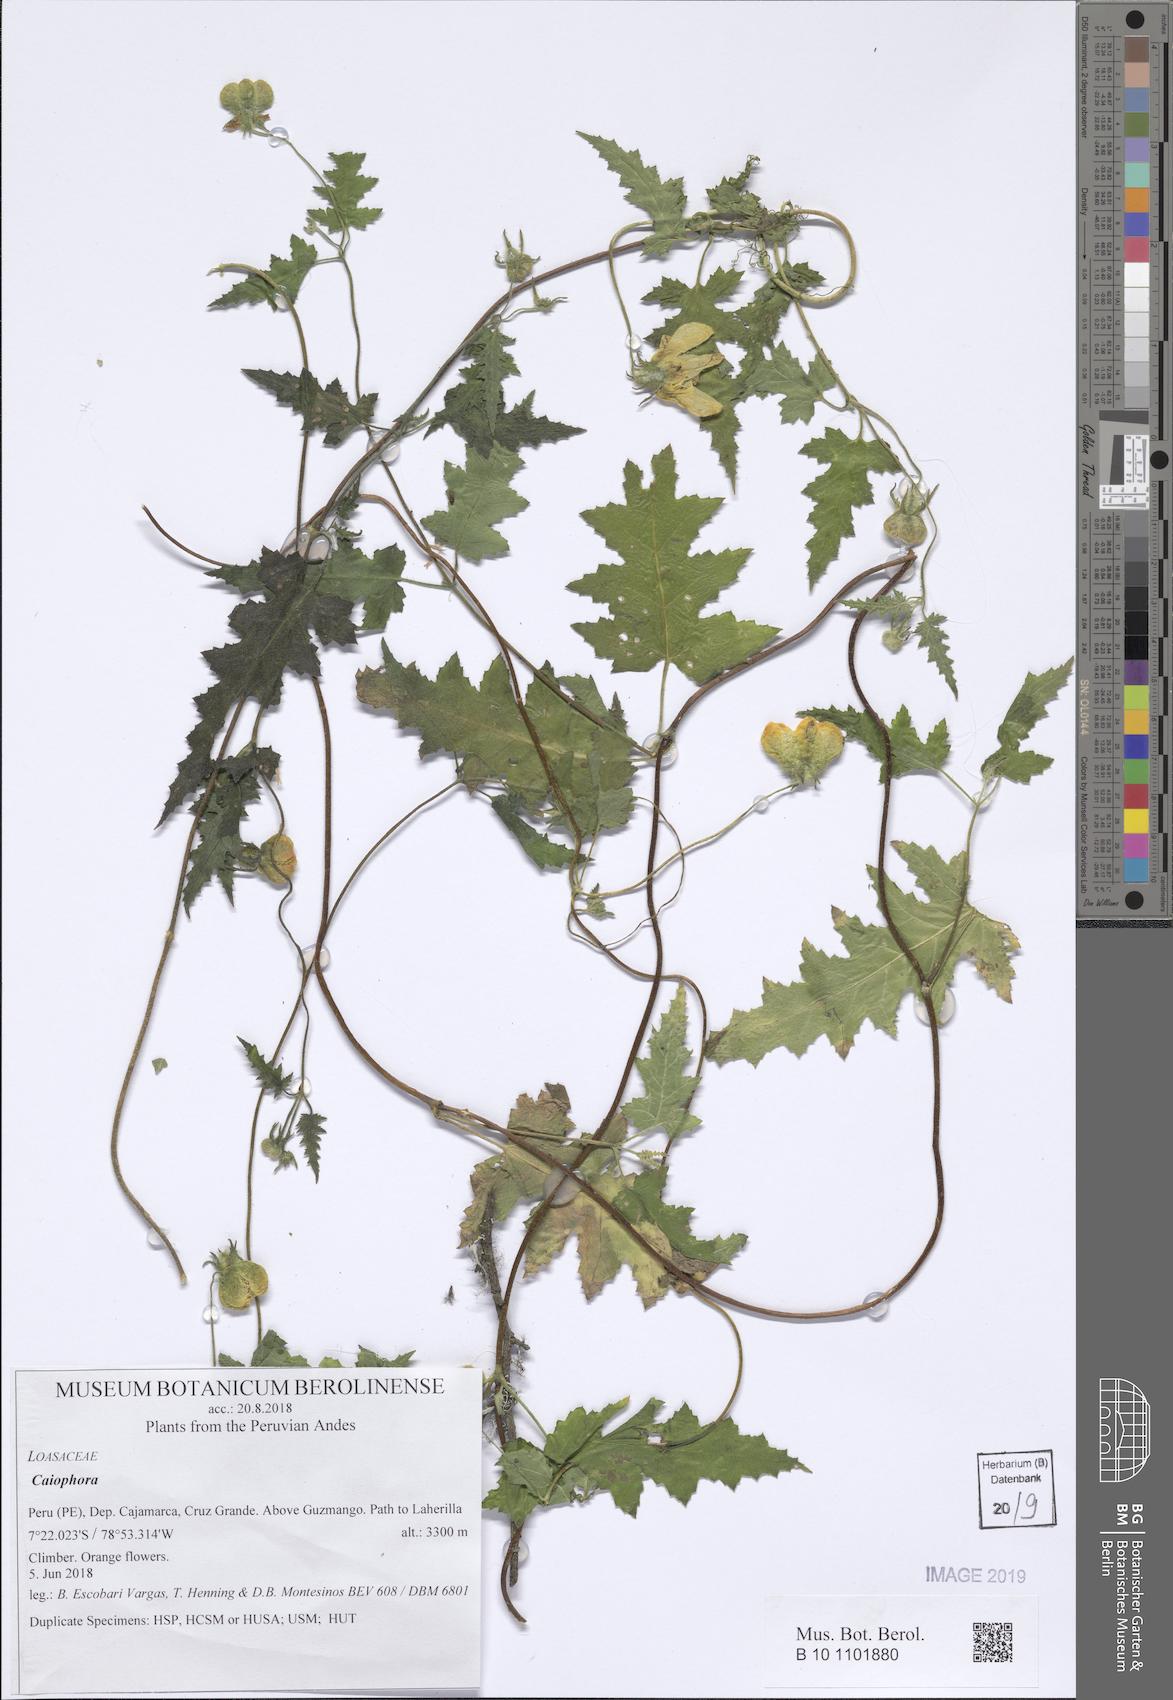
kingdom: Plantae
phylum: Tracheophyta
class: Magnoliopsida
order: Cornales
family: Loasaceae
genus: Caiophora
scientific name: Caiophora cirsiifolia
